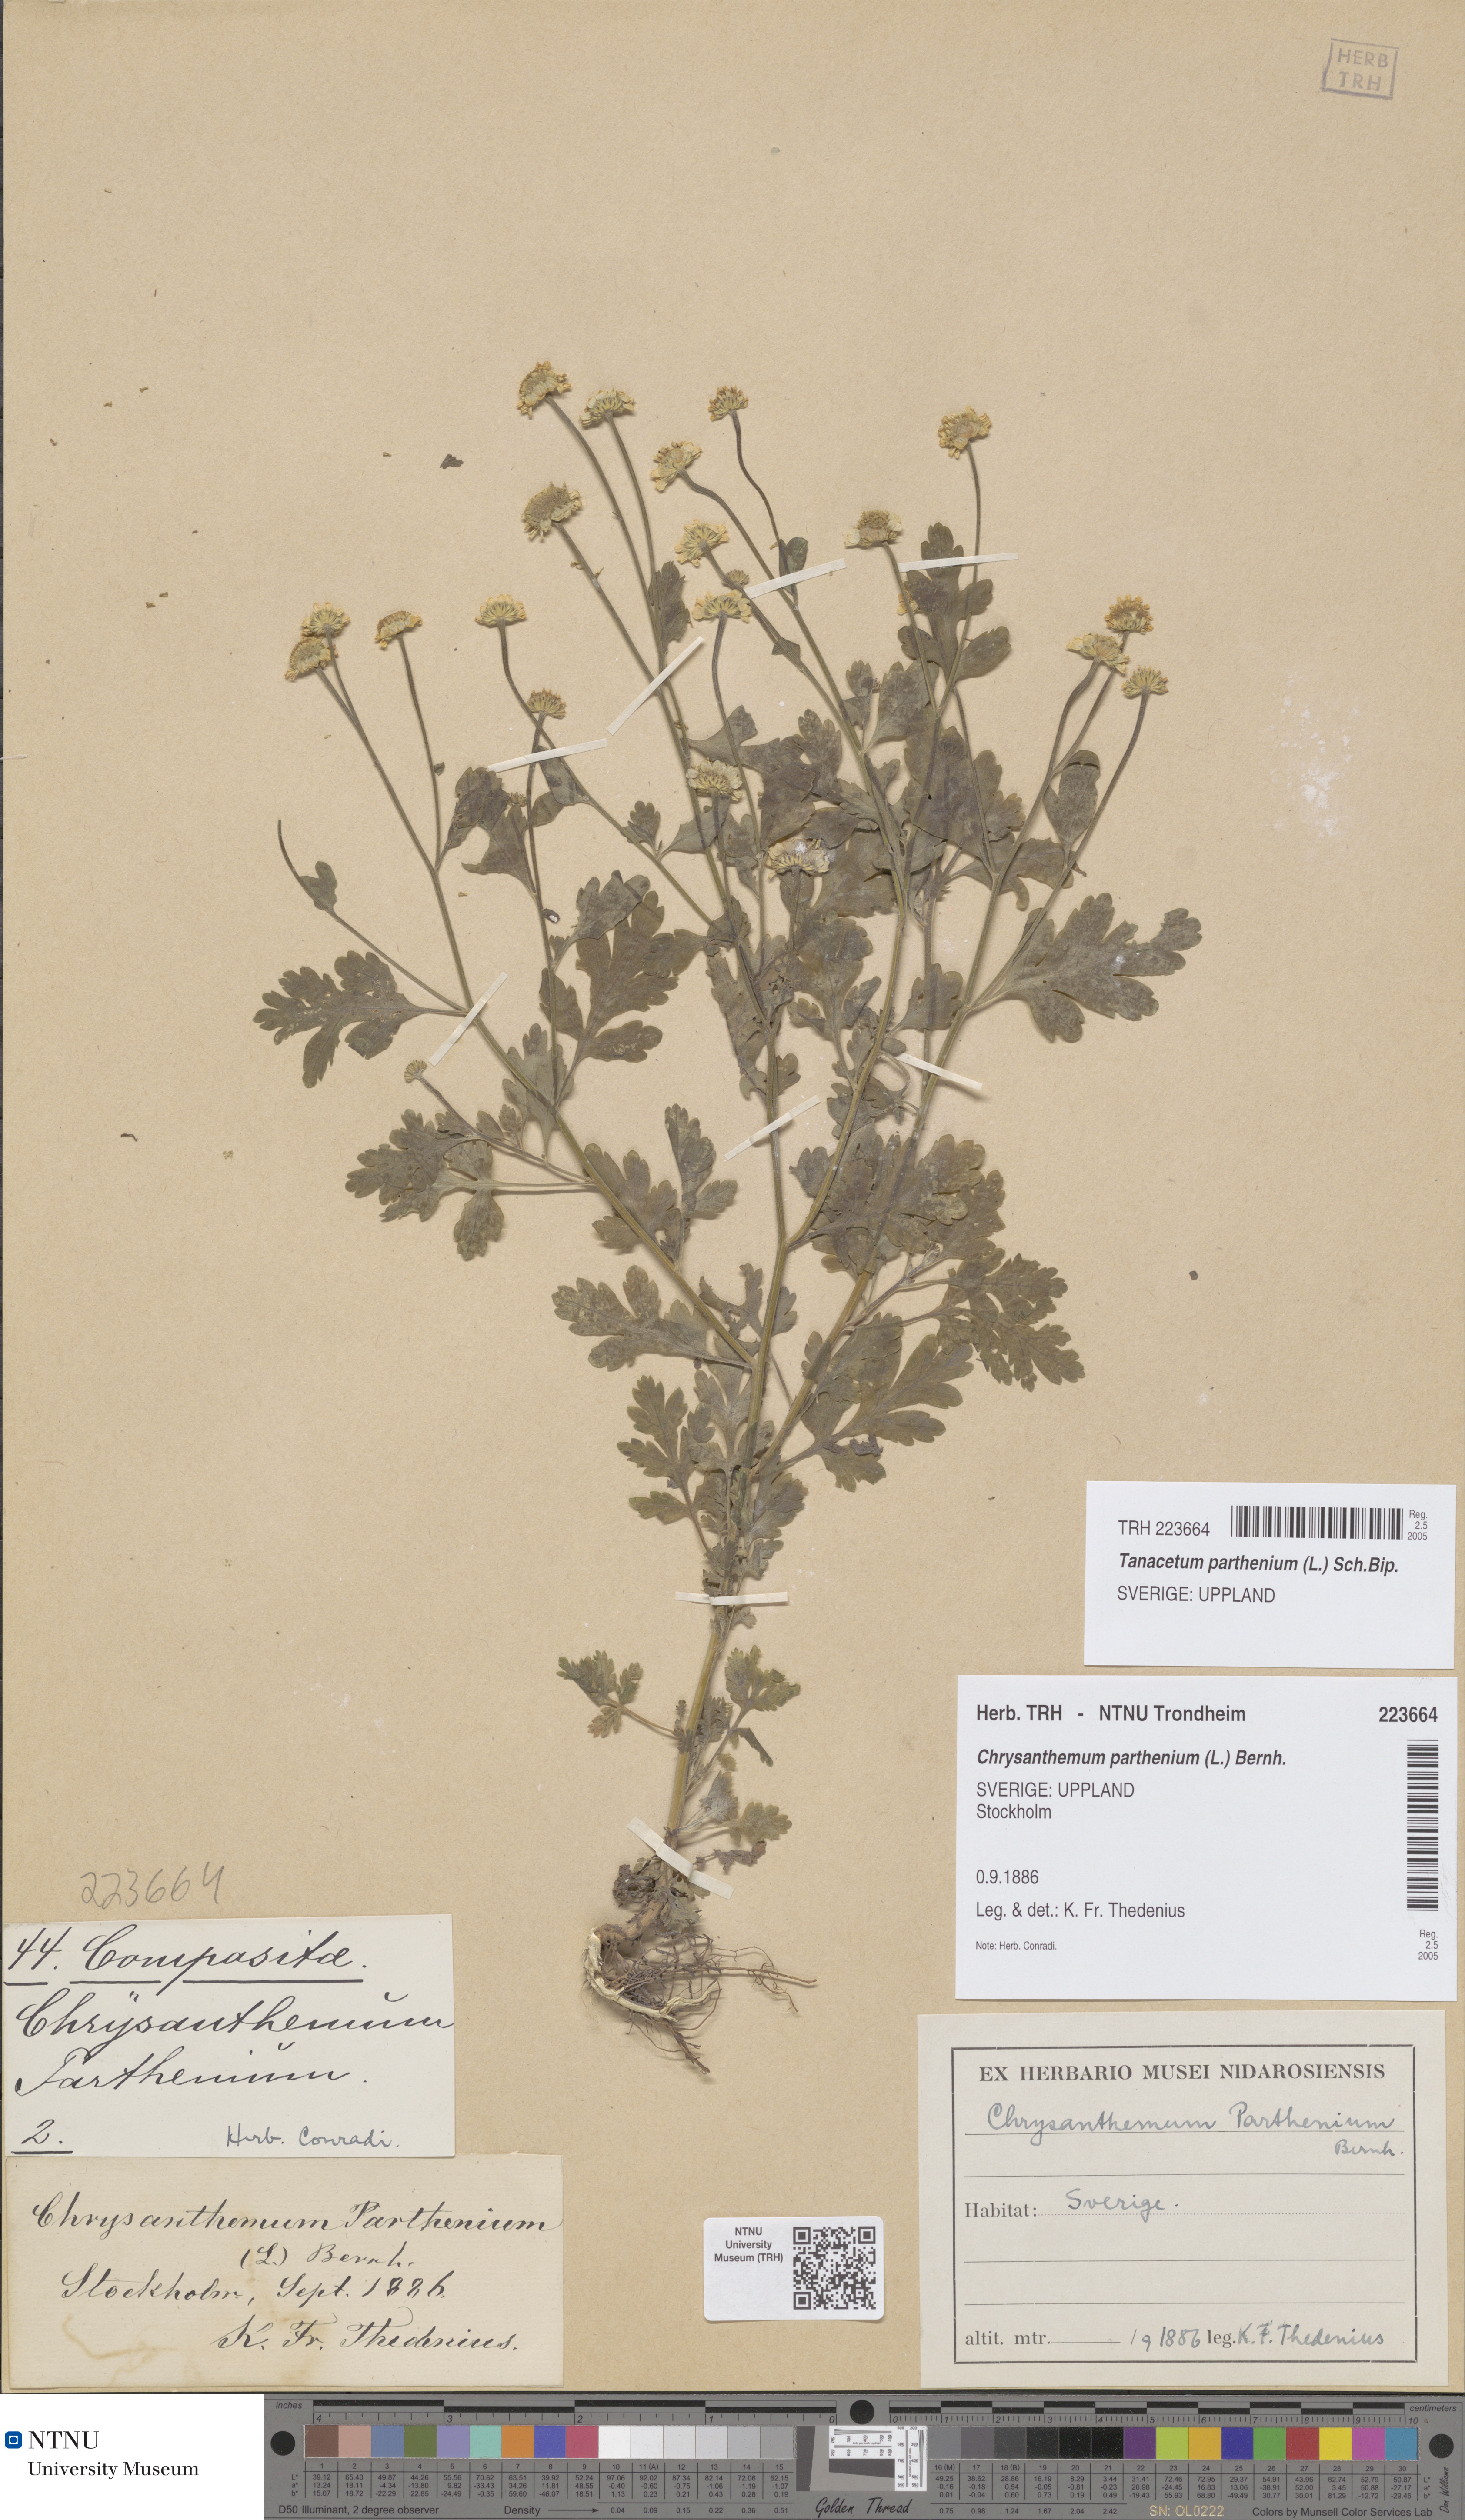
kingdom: Plantae
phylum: Tracheophyta
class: Magnoliopsida
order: Asterales
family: Asteraceae
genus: Tanacetum
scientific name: Tanacetum parthenium
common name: Feverfew
